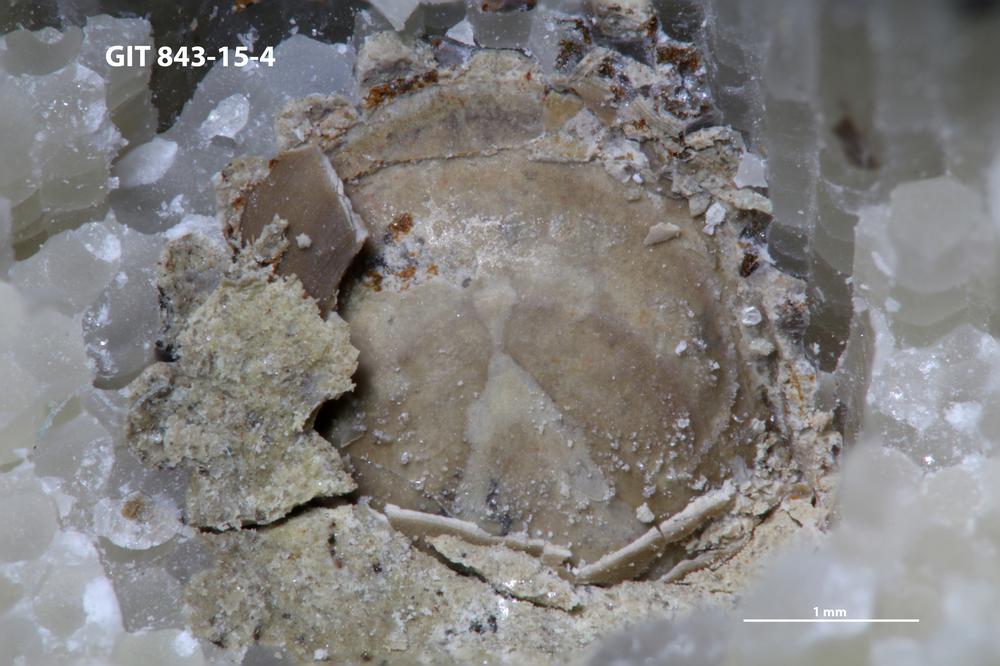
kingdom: Animalia
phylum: Brachiopoda
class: Lingulata
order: Lingulida
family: Zhanatellidae
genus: Rowellella
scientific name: Rowellella
